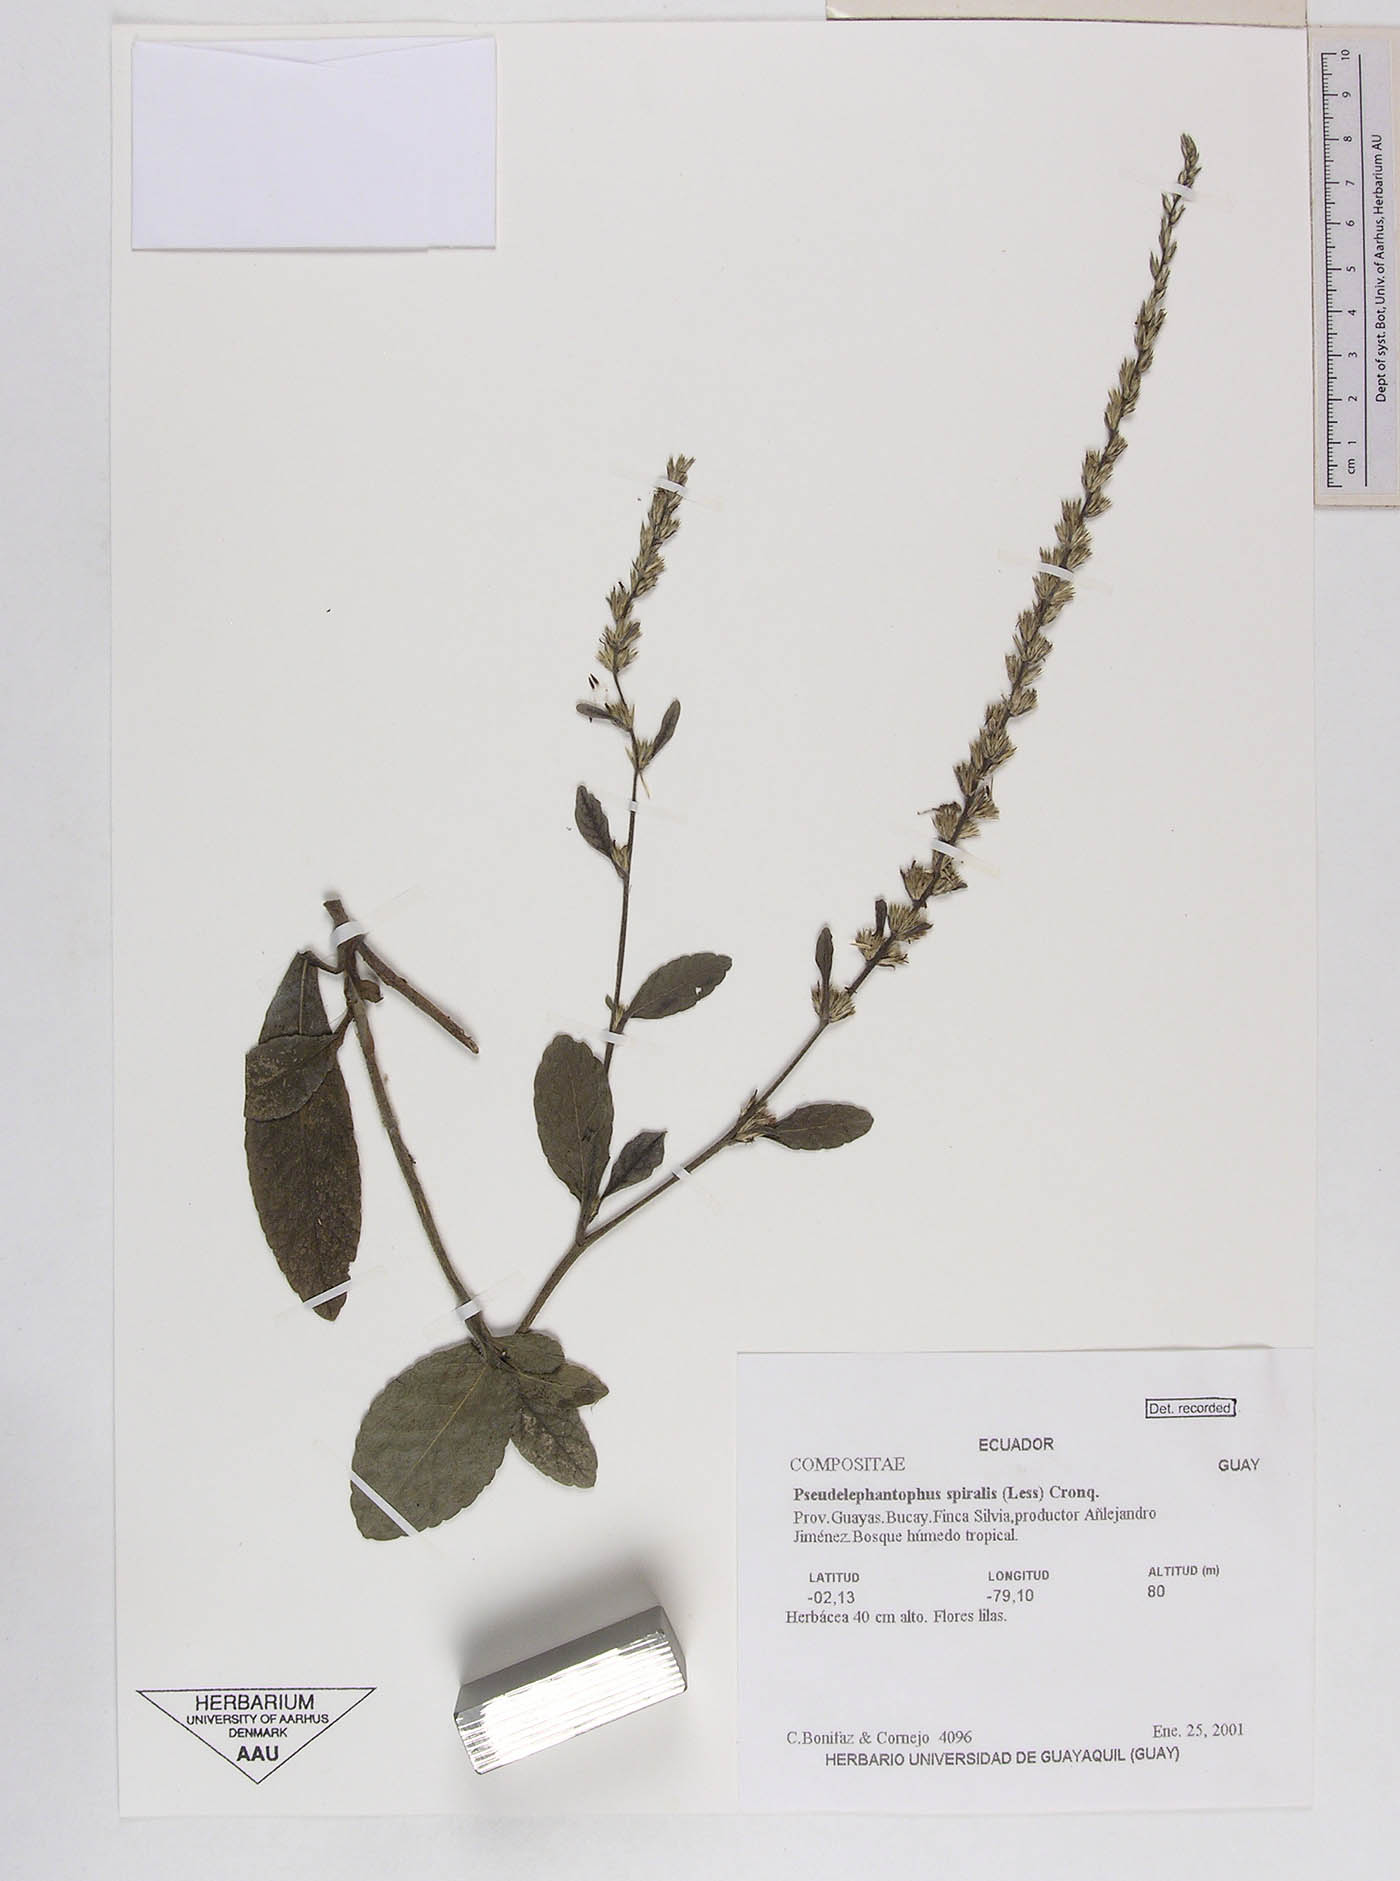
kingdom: Plantae
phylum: Tracheophyta
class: Magnoliopsida
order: Asterales
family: Asteraceae
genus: Pseudelephantopus
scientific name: Pseudelephantopus spiralis
